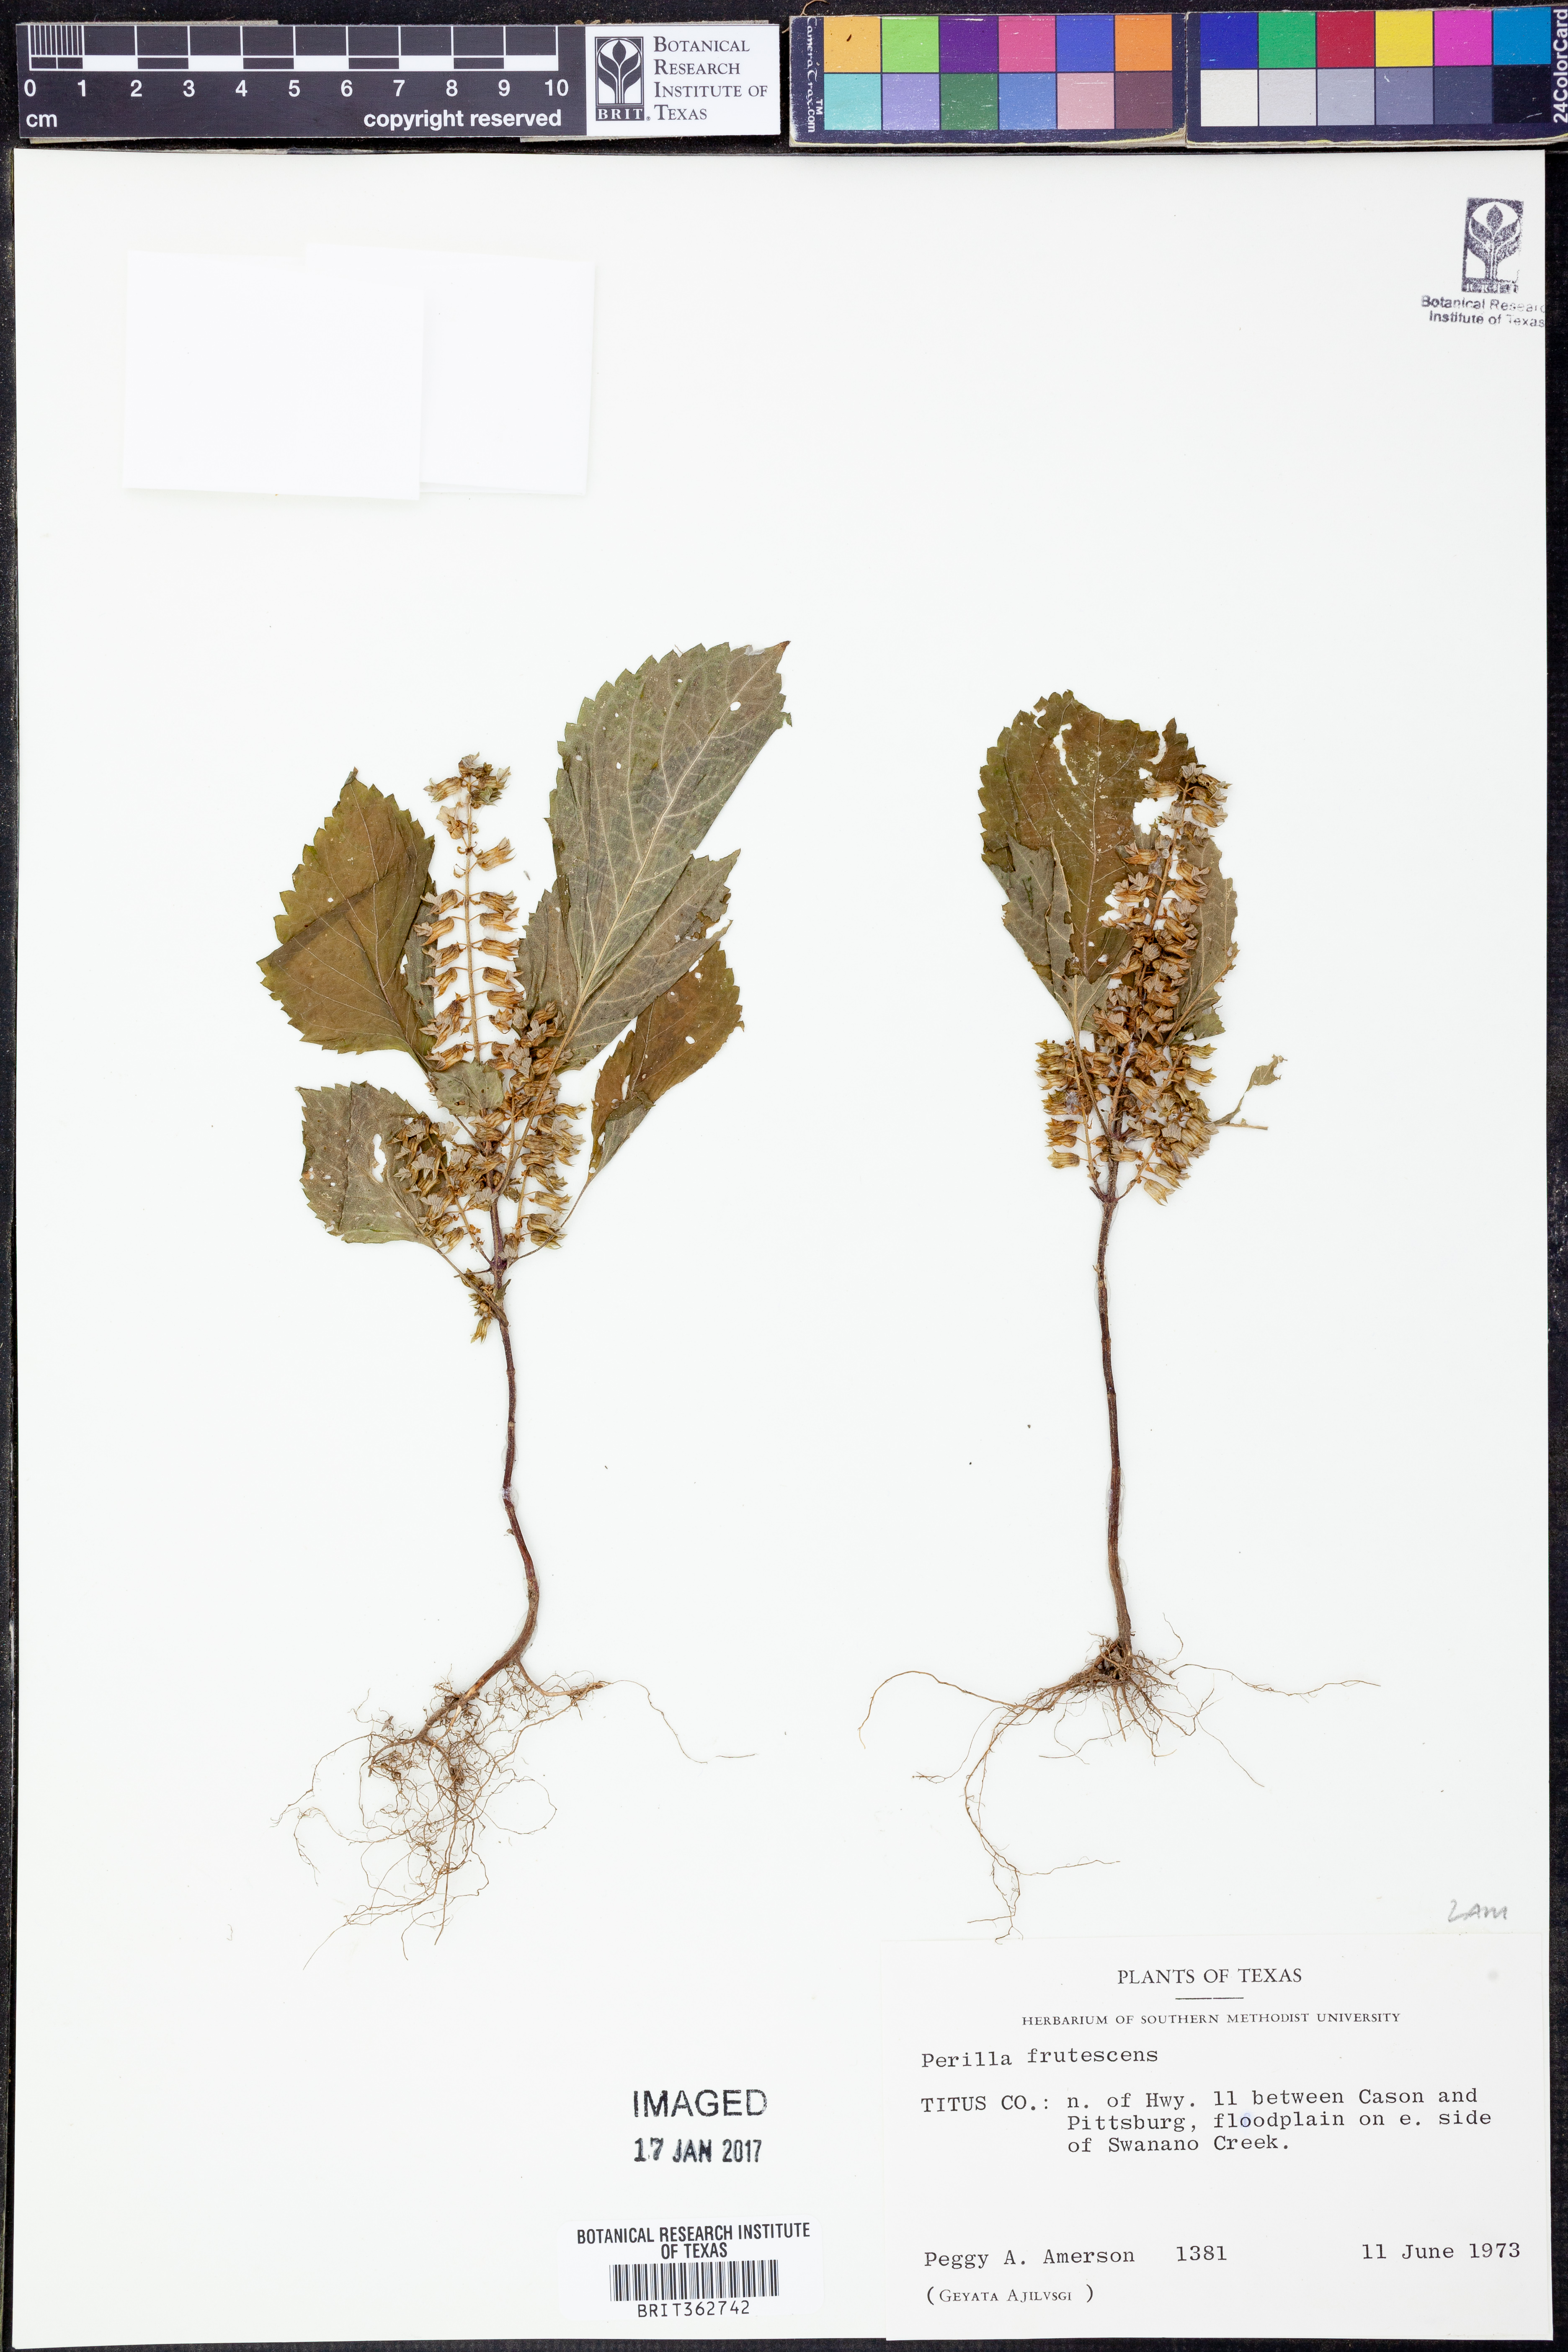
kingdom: Plantae
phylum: Tracheophyta
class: Magnoliopsida
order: Lamiales
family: Lamiaceae
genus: Perilla
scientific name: Perilla frutescens
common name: Perilla
